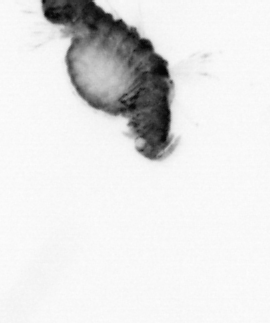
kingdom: Animalia
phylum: Annelida
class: Polychaeta
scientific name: Polychaeta
